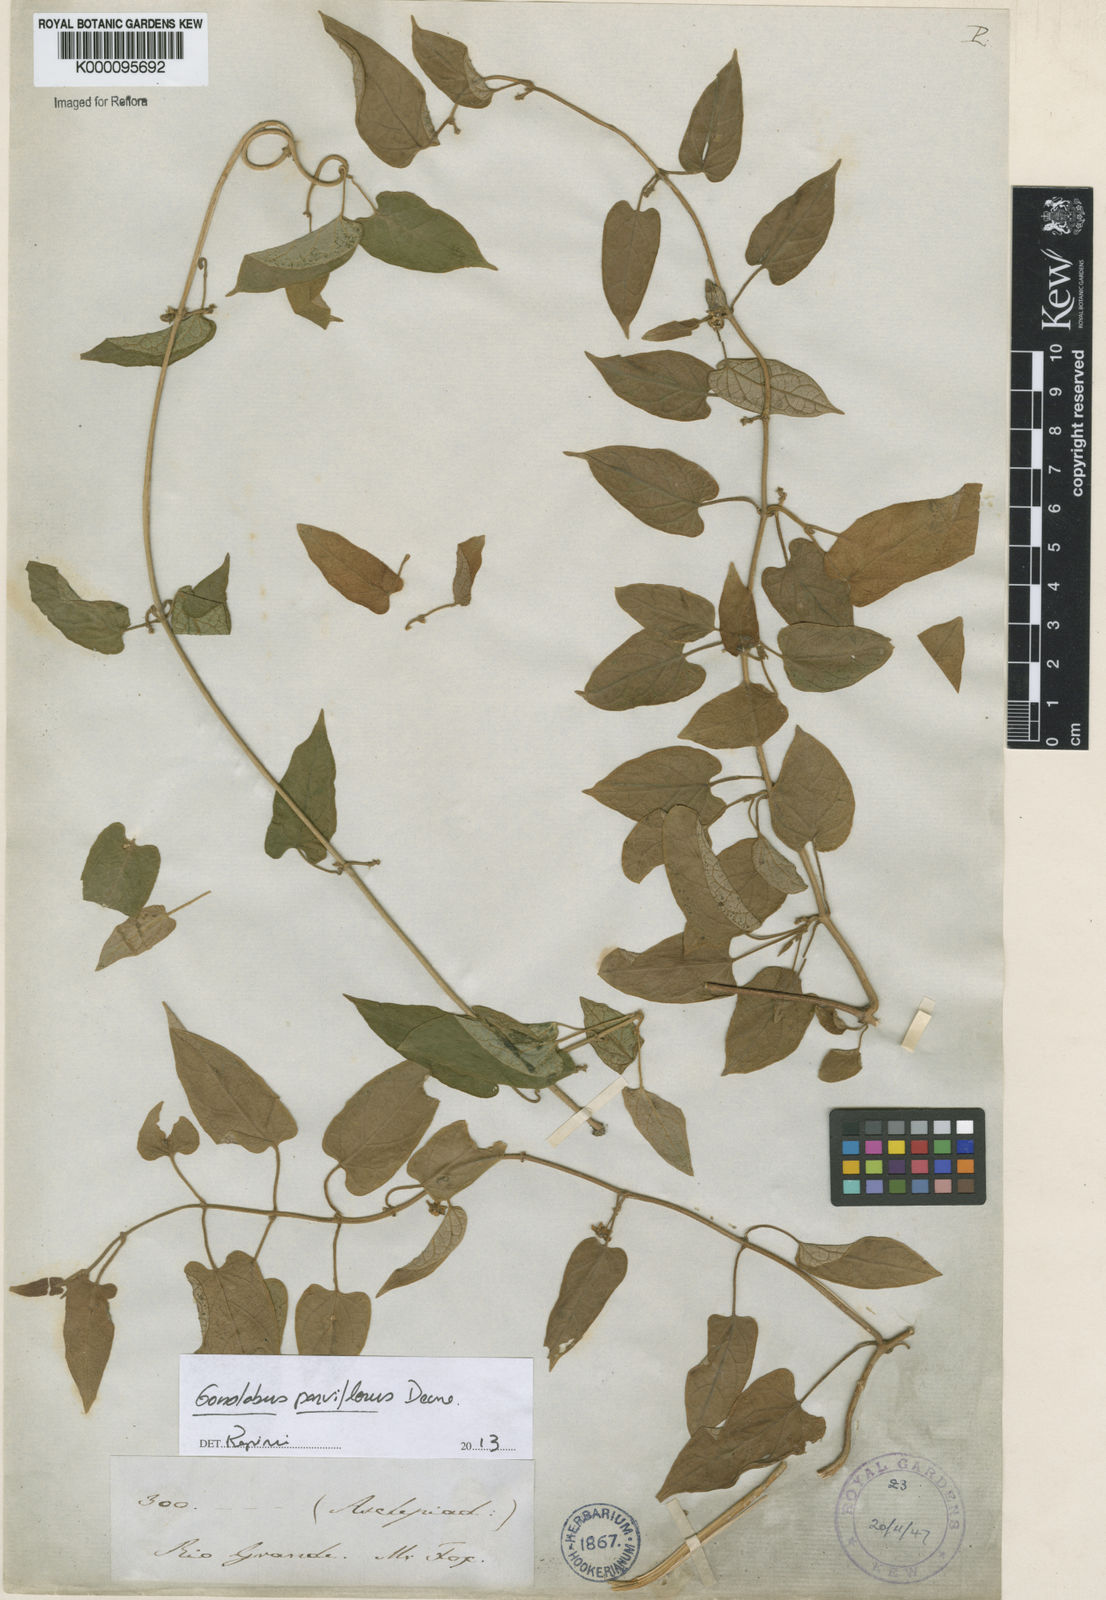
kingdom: Plantae
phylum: Tracheophyta
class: Magnoliopsida
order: Gentianales
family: Apocynaceae
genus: Gonolobus
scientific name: Gonolobus parviflorus
